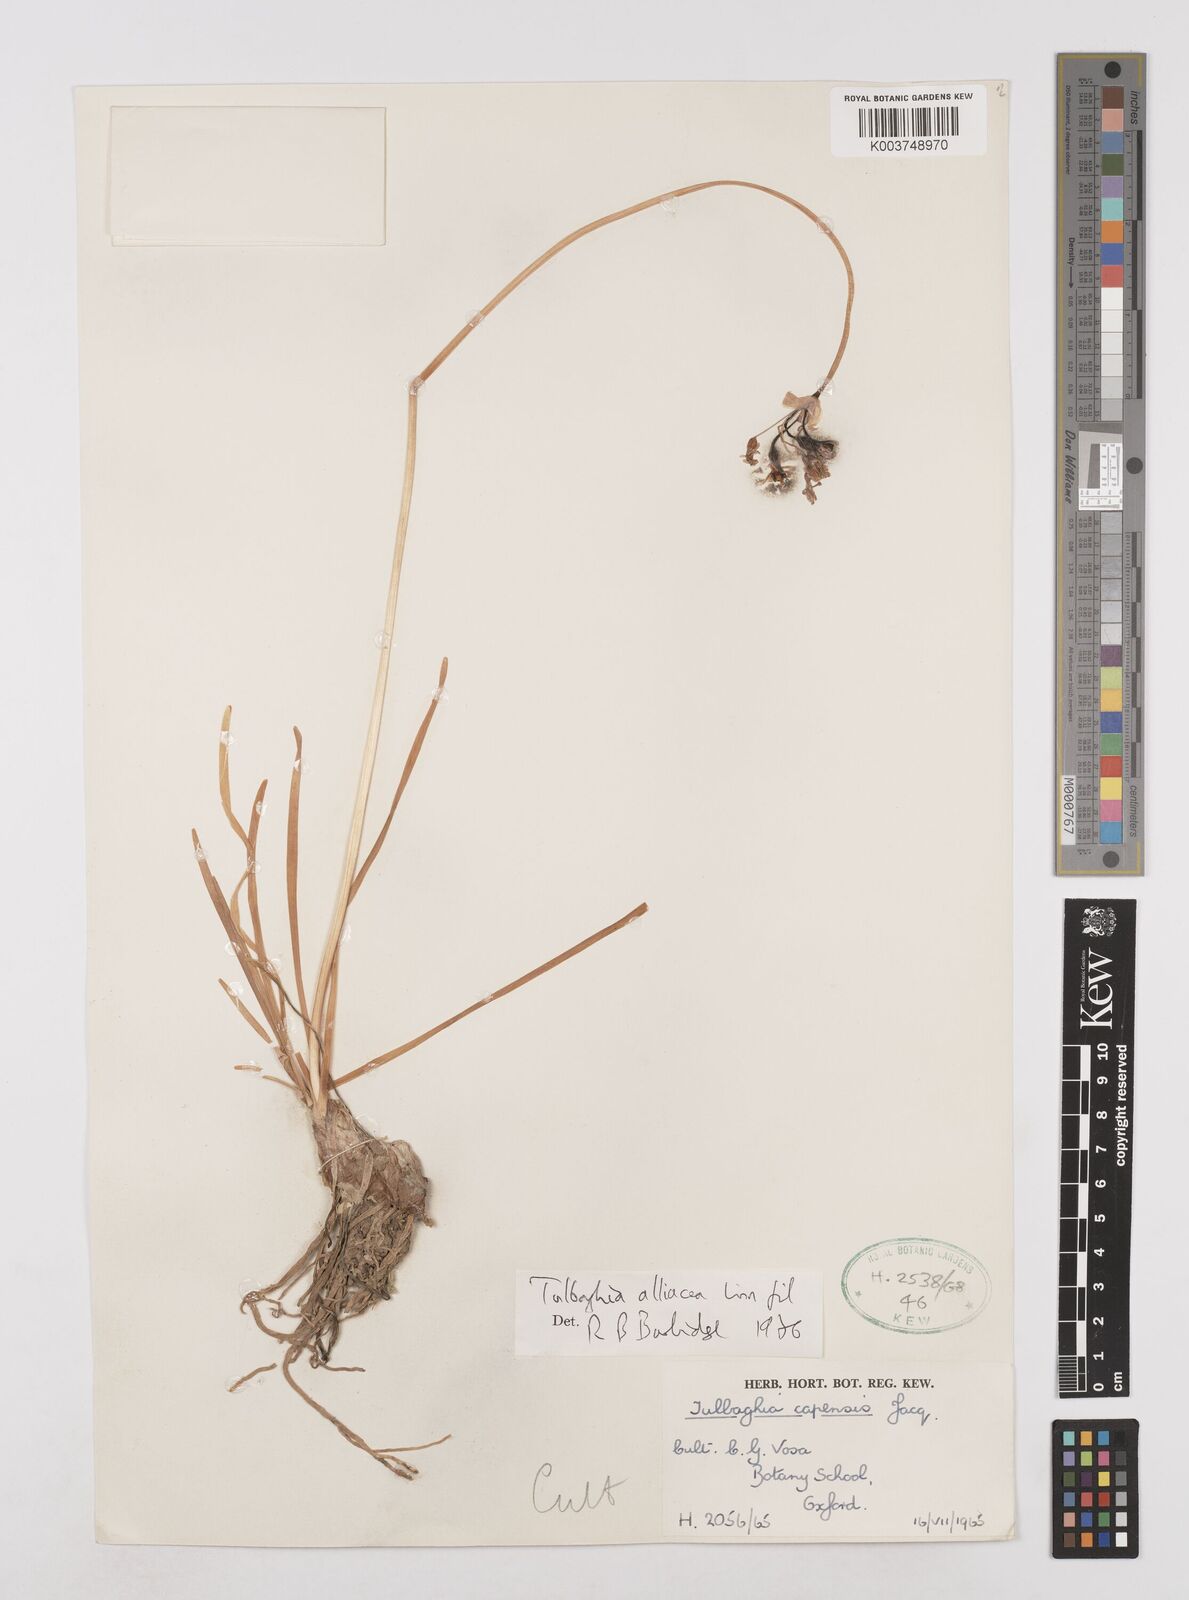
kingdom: Plantae
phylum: Tracheophyta
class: Liliopsida
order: Asparagales
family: Amaryllidaceae
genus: Tulbaghia
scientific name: Tulbaghia verdoornia
